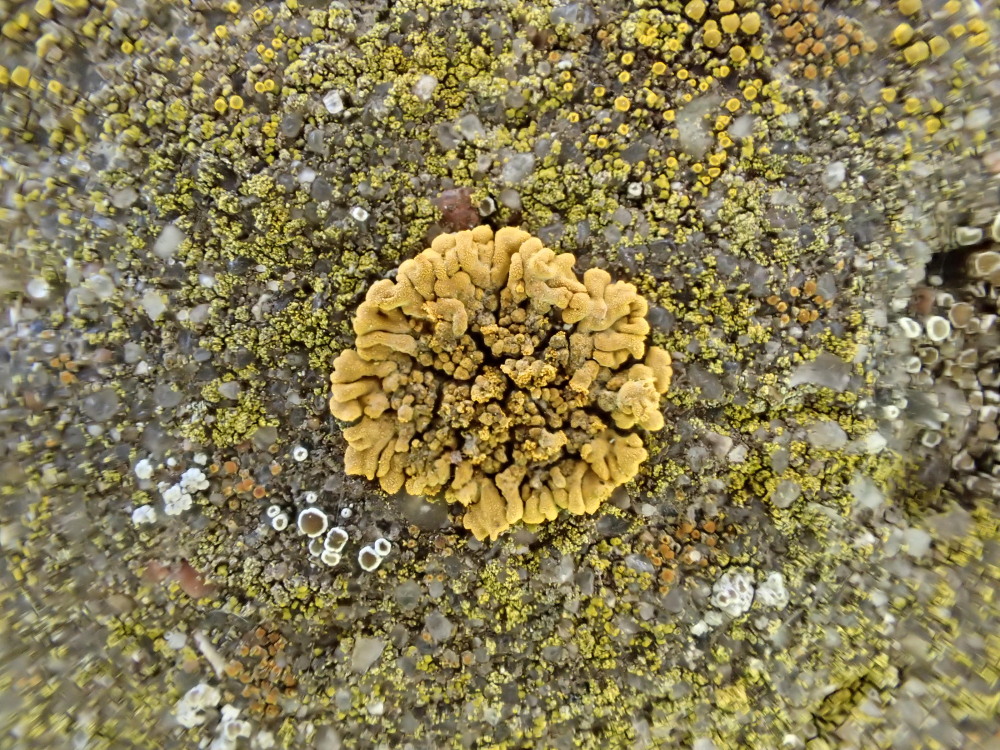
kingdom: Fungi
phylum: Ascomycota
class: Lecanoromycetes
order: Teloschistales
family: Teloschistaceae
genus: Calogaya
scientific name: Calogaya decipiens
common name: knudret orangelav
